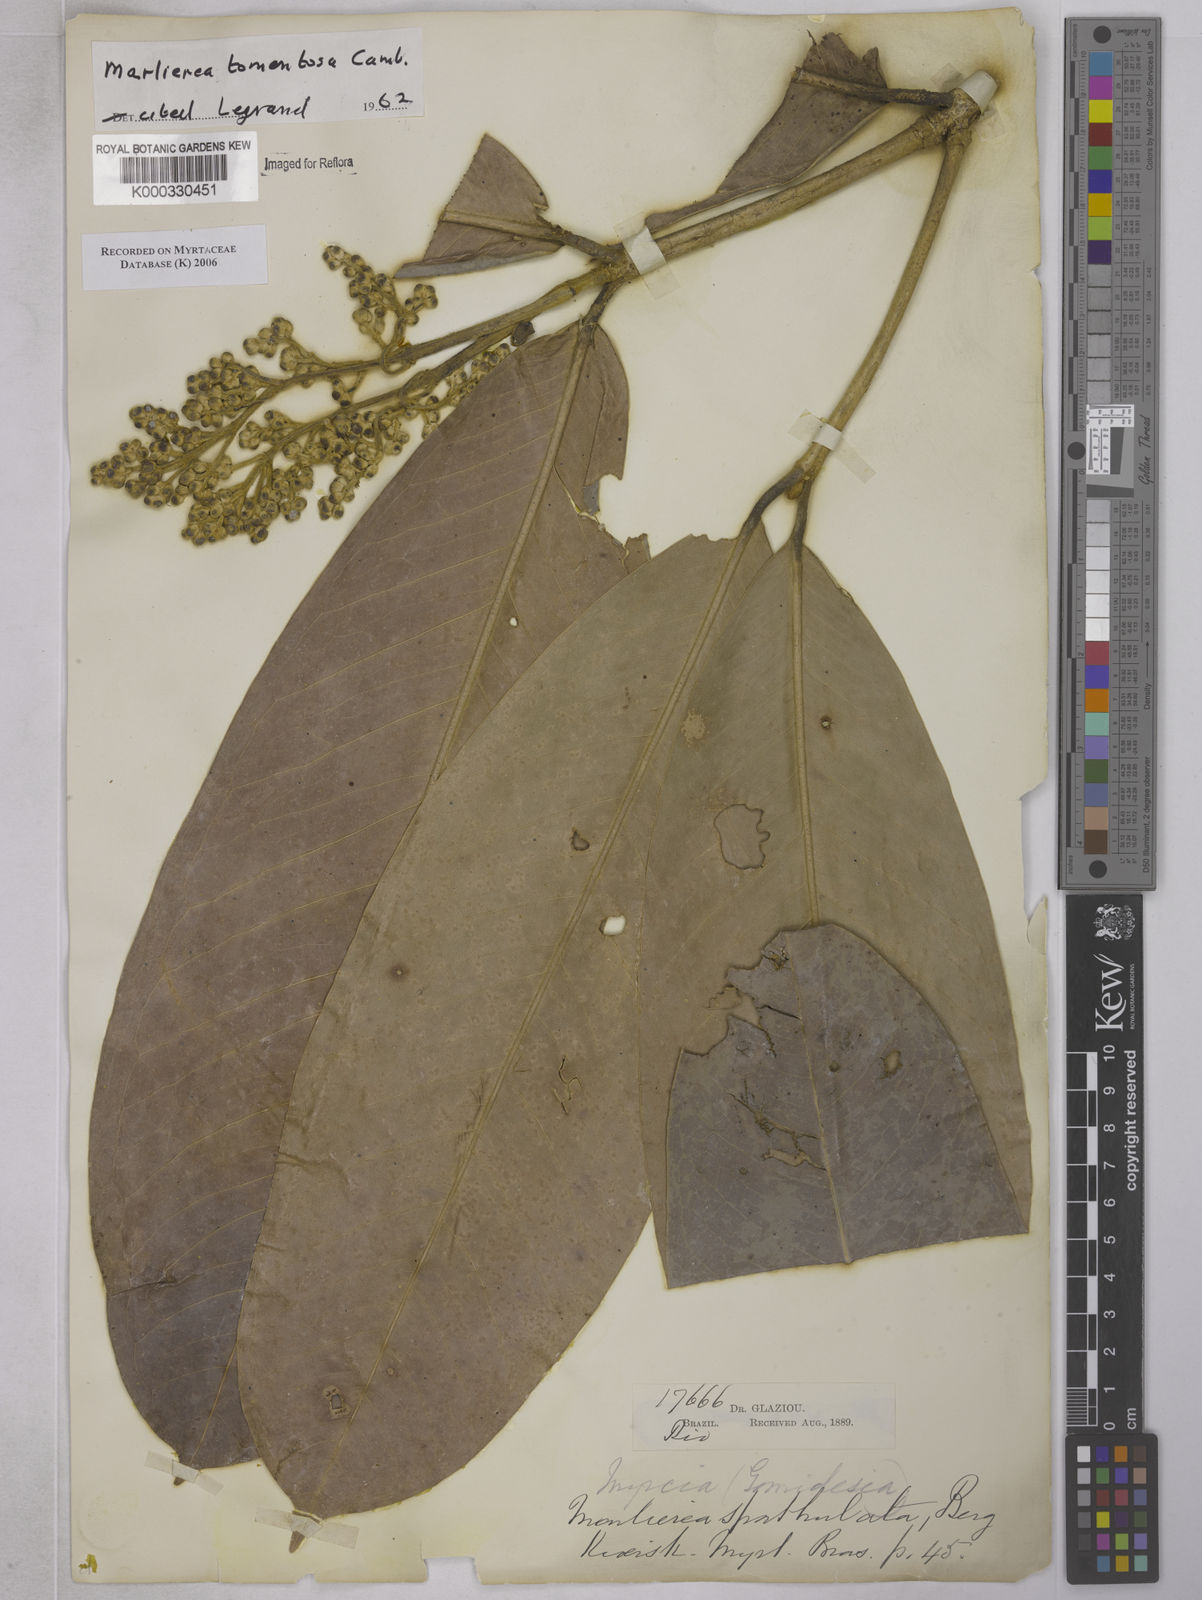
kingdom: Plantae
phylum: Tracheophyta
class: Magnoliopsida
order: Myrtales
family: Myrtaceae
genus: Myrcia
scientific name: Myrcia neotomentosa
